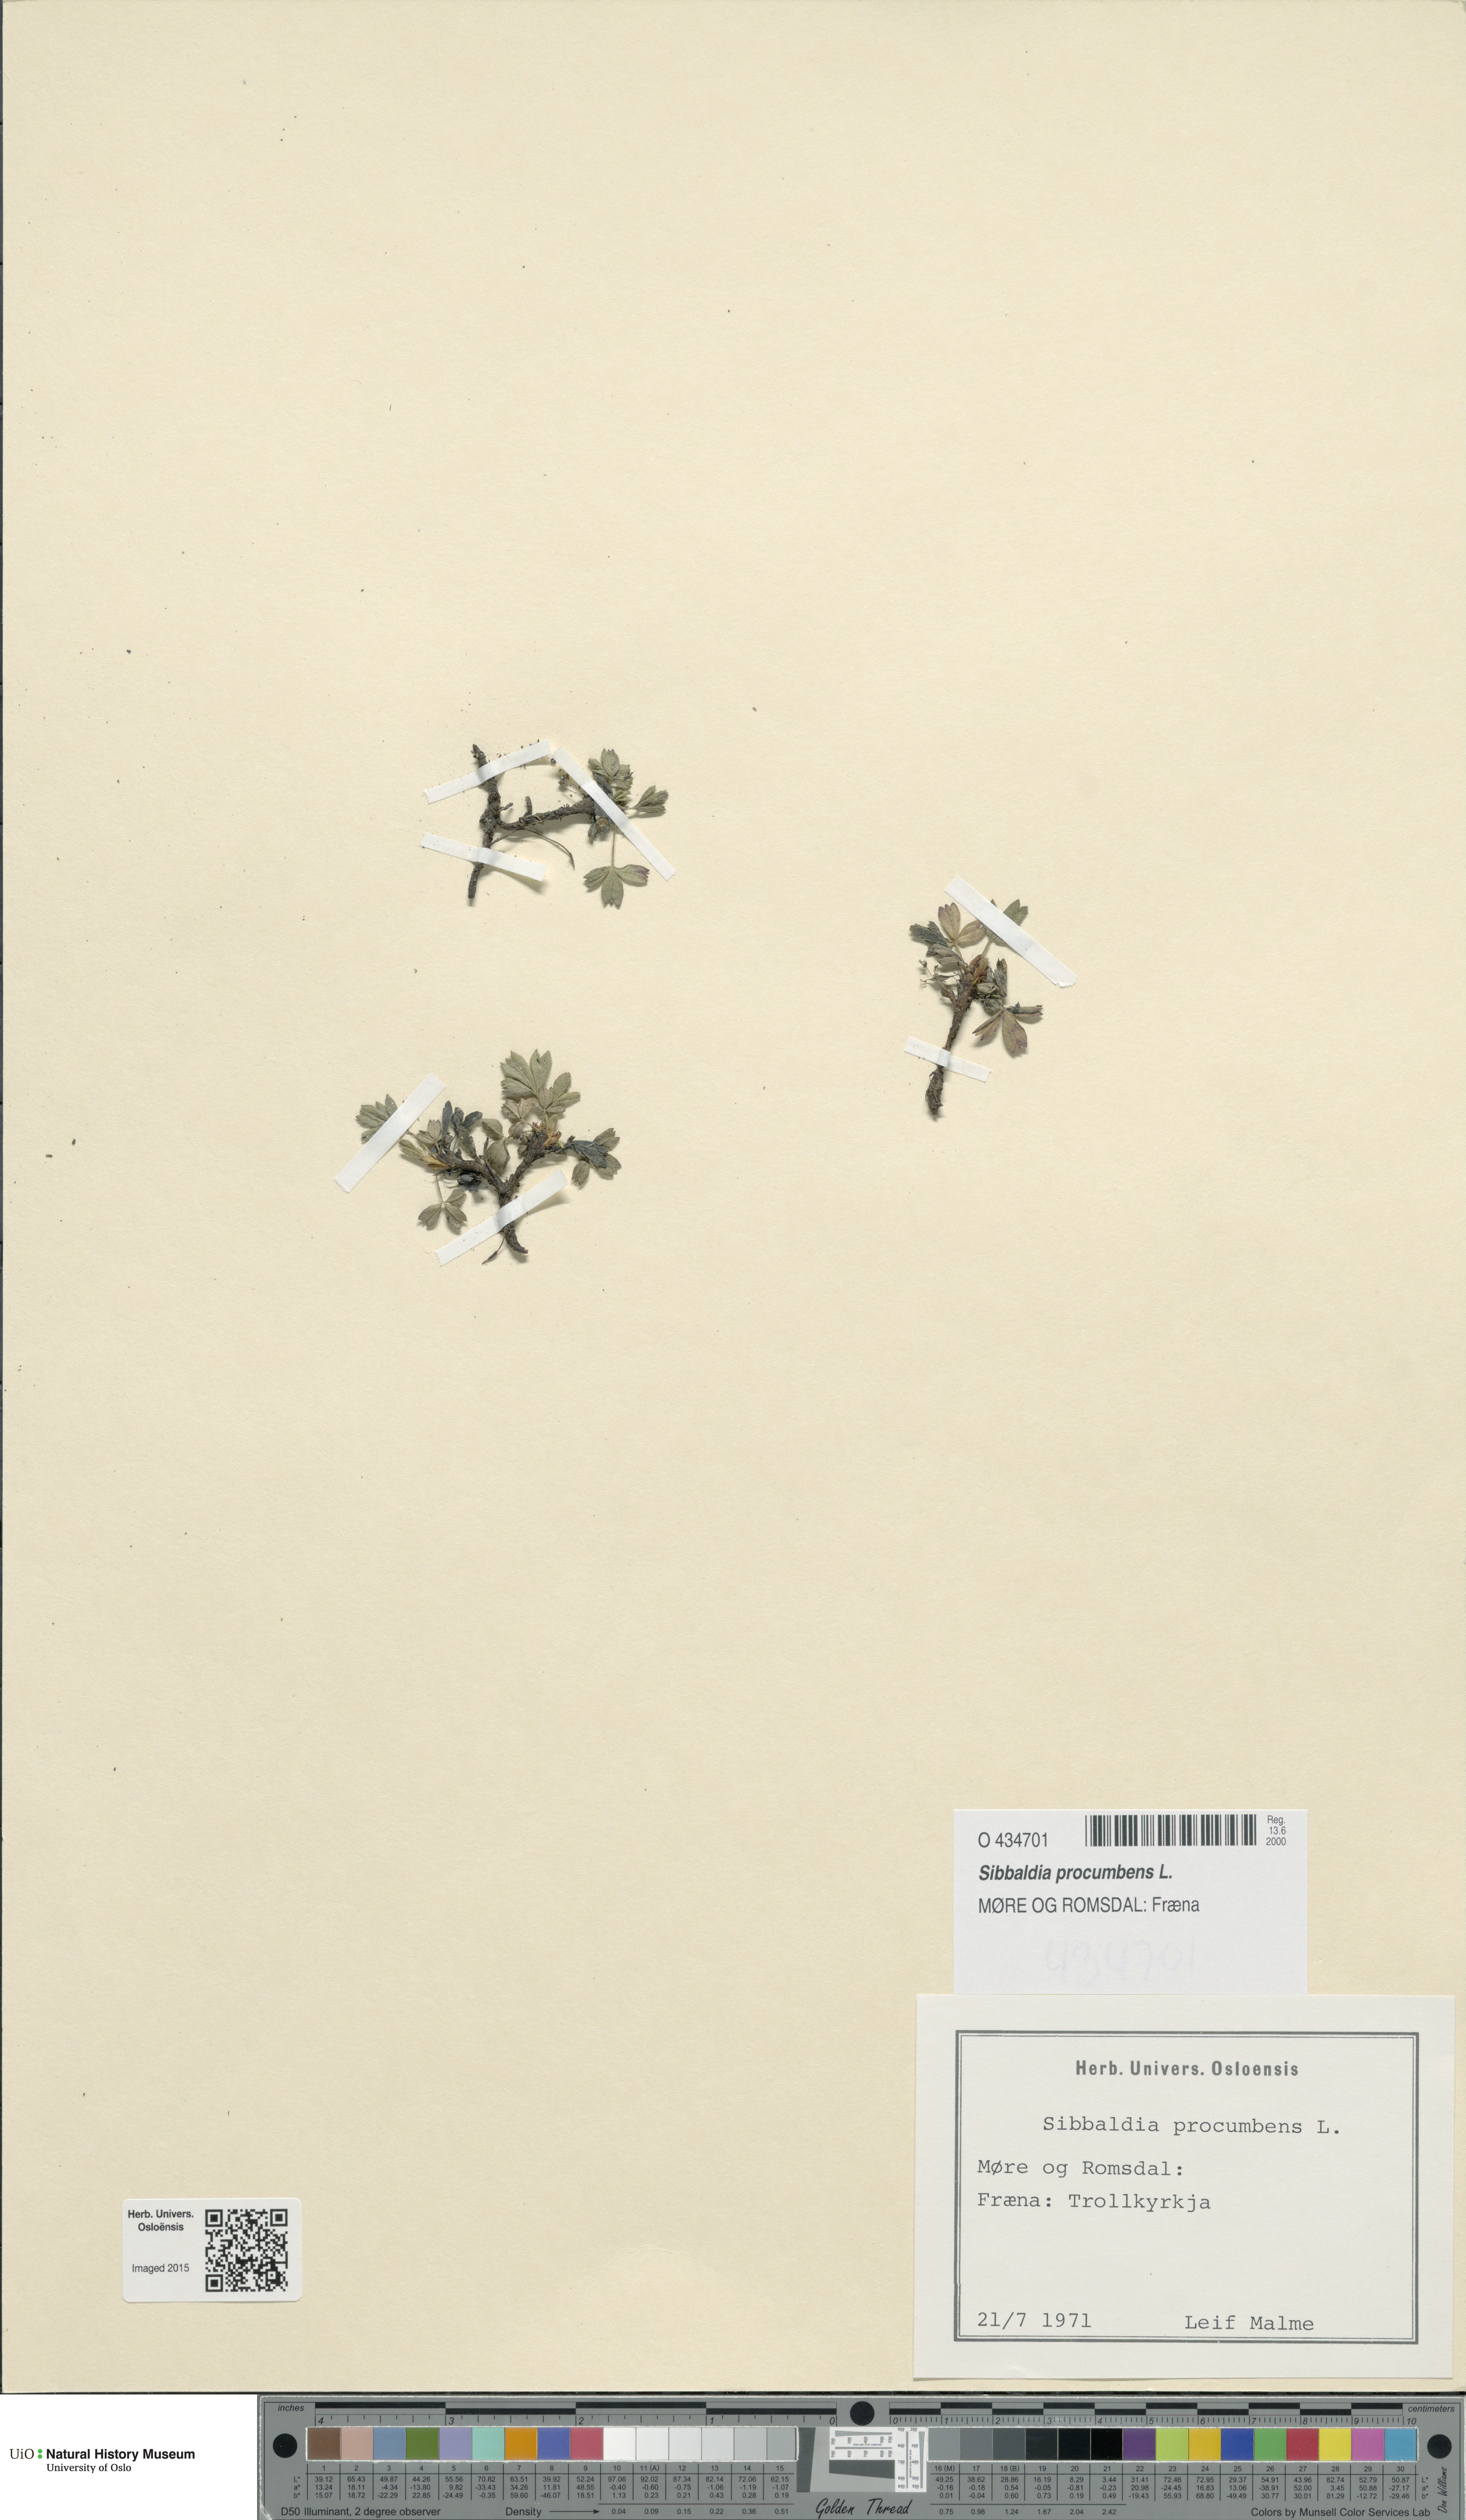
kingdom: Plantae
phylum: Tracheophyta
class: Magnoliopsida
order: Rosales
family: Rosaceae
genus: Sibbaldia
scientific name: Sibbaldia procumbens
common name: Creeping sibbaldia
